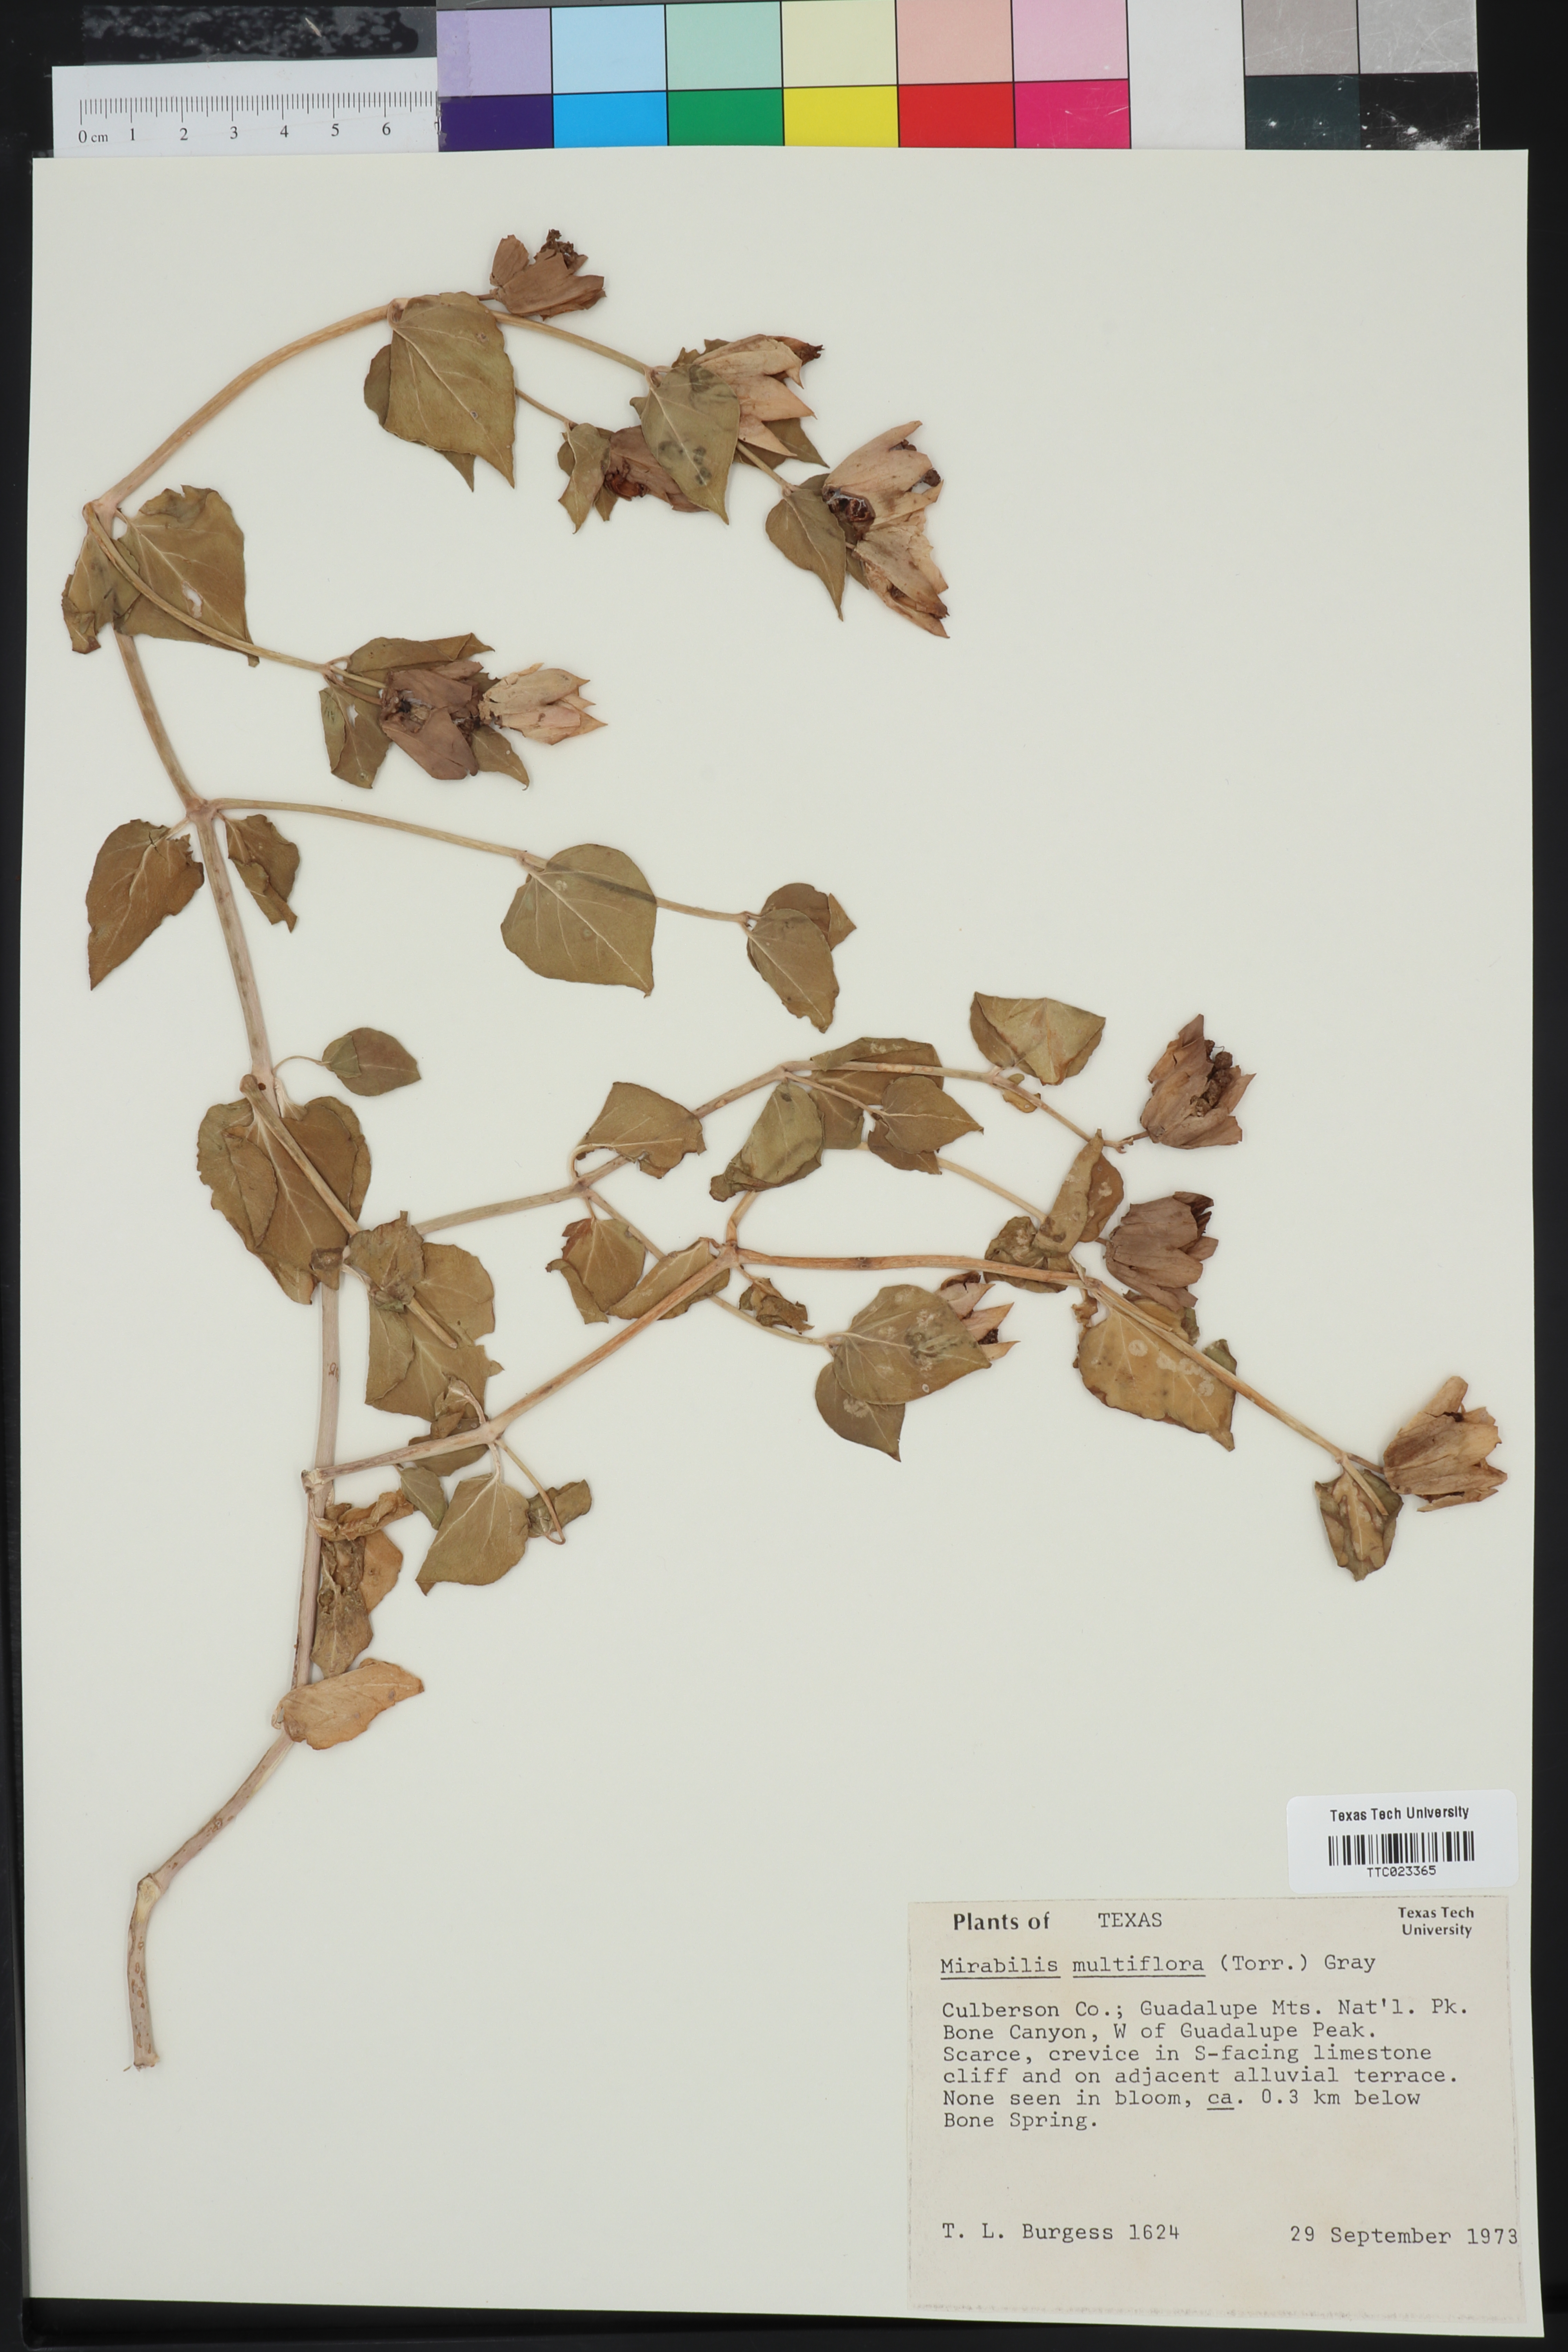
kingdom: Plantae
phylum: Tracheophyta
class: Magnoliopsida
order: Caryophyllales
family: Nyctaginaceae
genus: Mirabilis
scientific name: Mirabilis multiflora
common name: Froebel's four-o'clock
